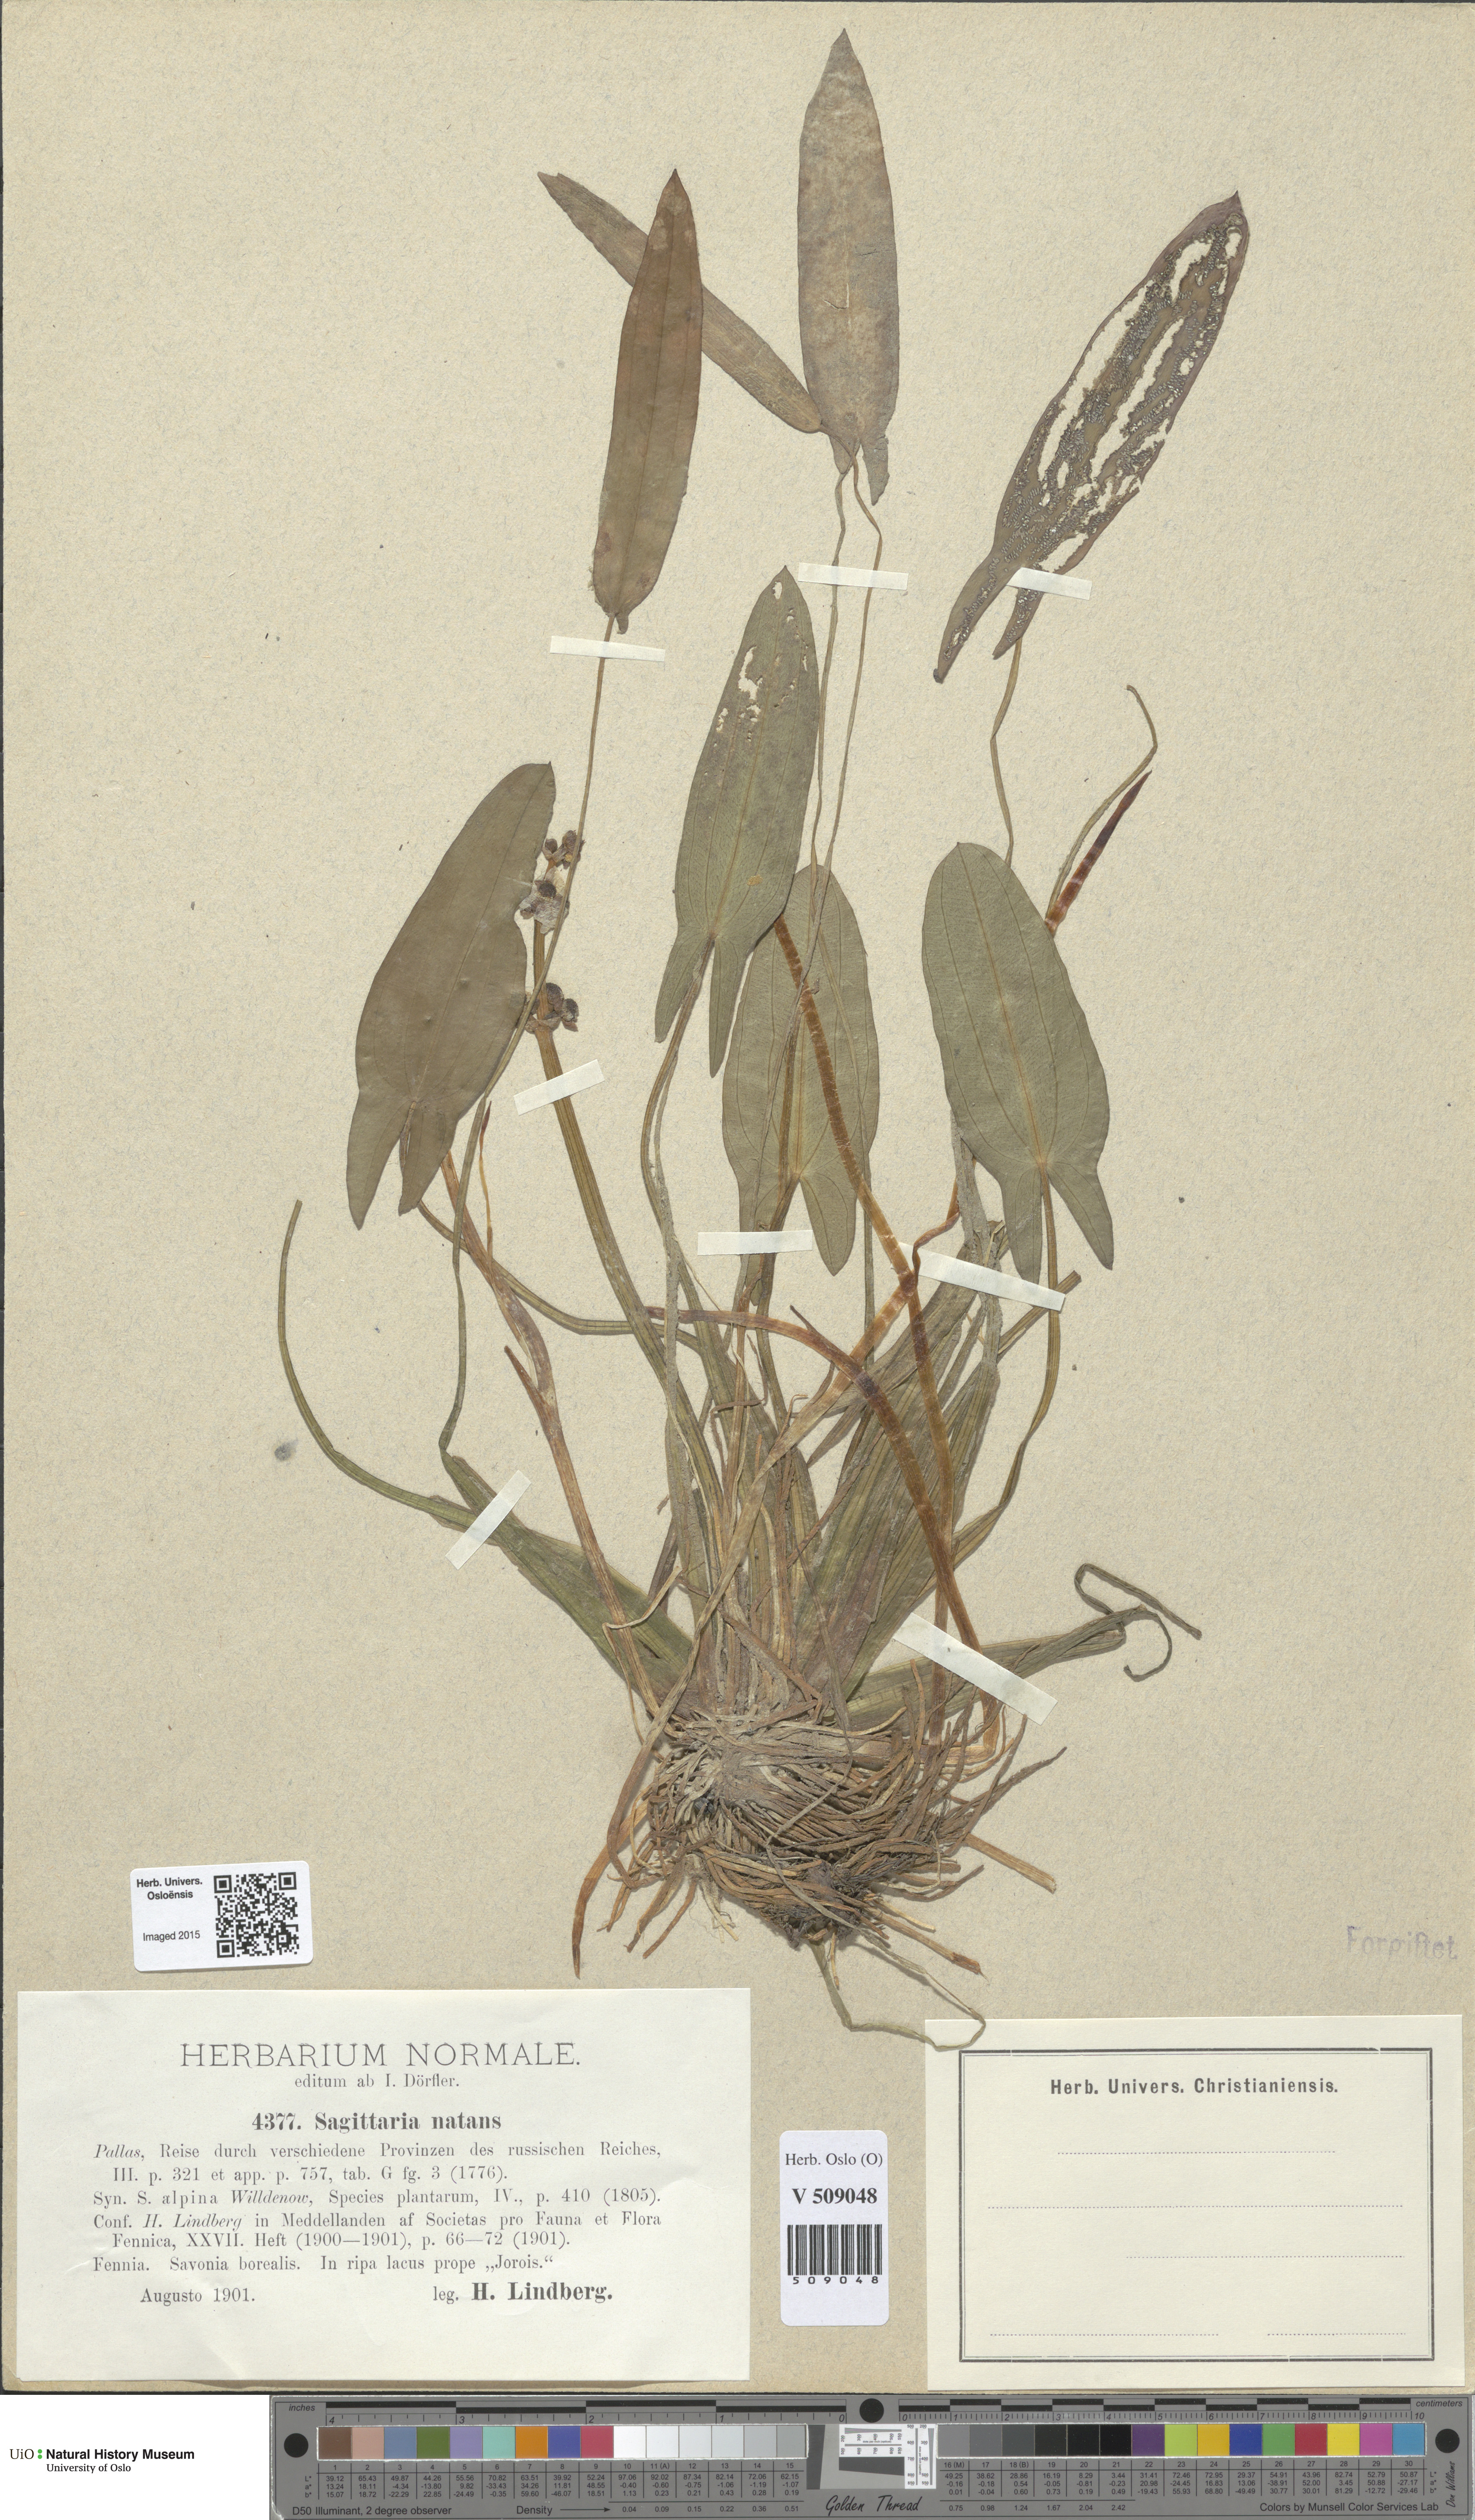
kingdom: Plantae
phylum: Tracheophyta
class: Liliopsida
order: Alismatales
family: Alismataceae
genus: Sagittaria
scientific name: Sagittaria natans
